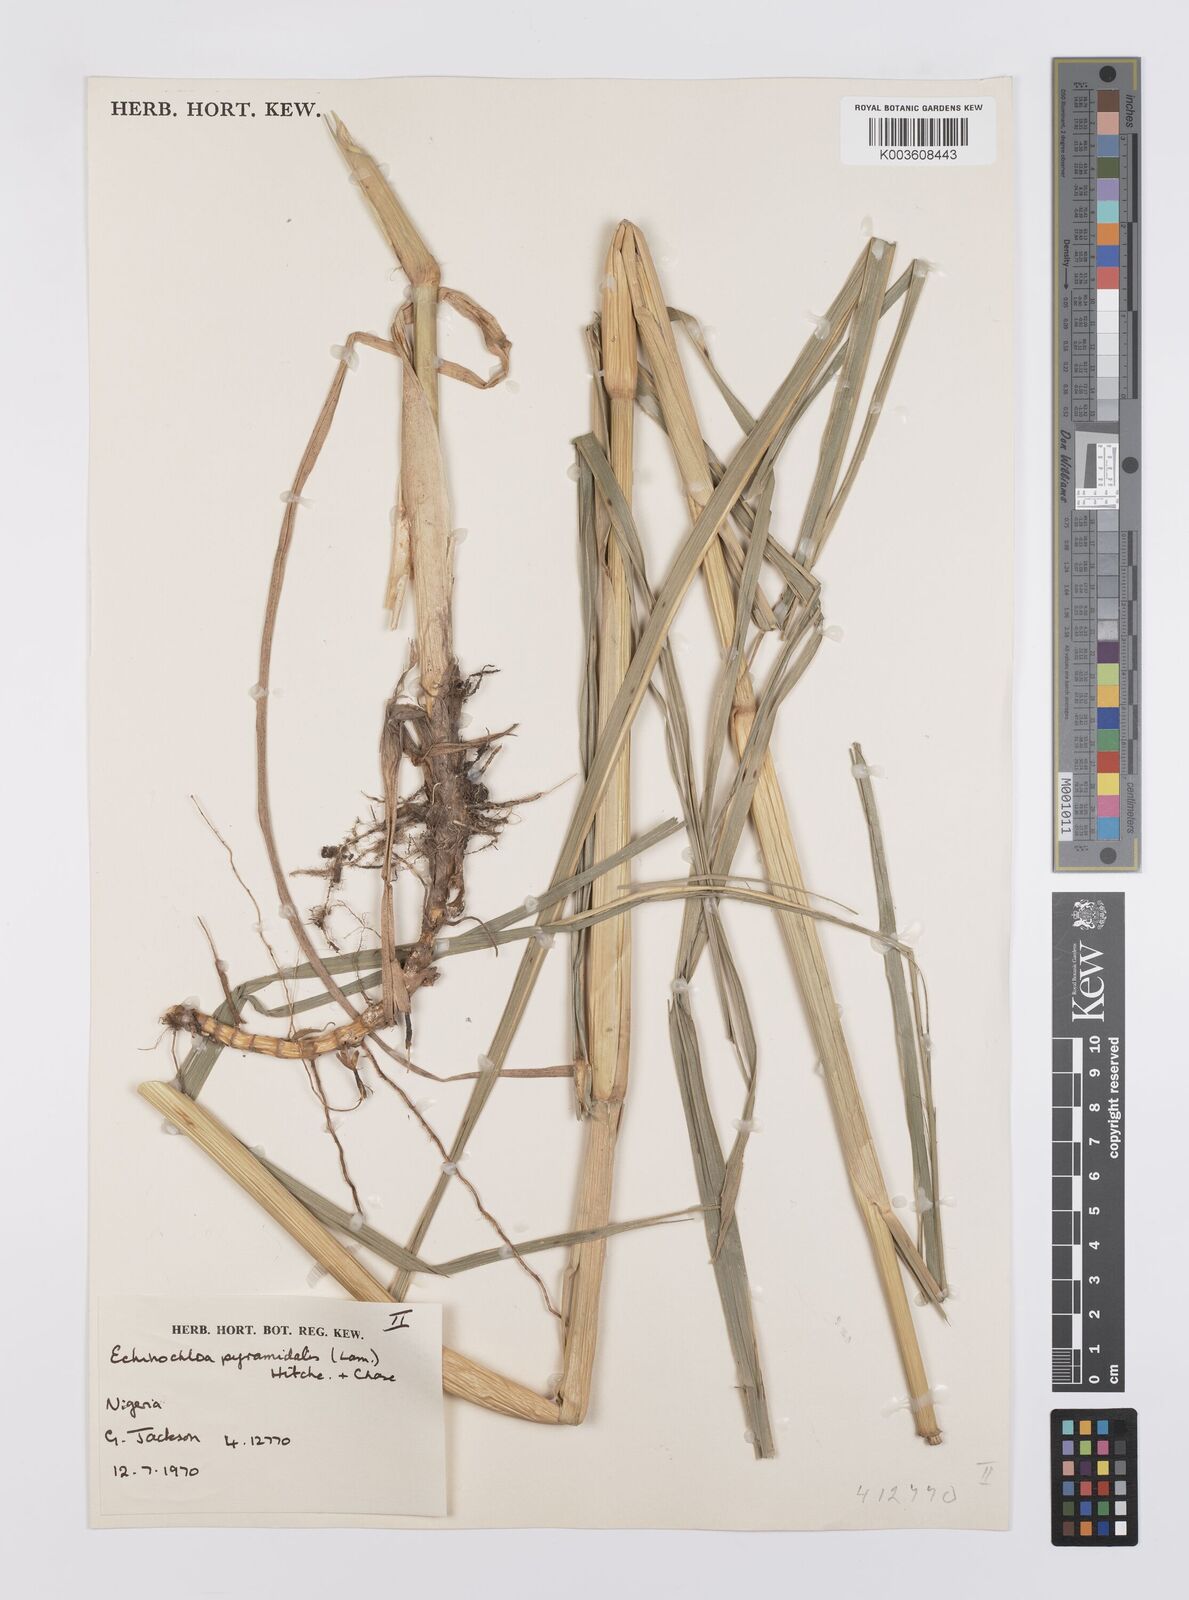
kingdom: Plantae
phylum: Tracheophyta
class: Liliopsida
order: Poales
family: Poaceae
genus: Echinochloa
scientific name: Echinochloa pyramidalis
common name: Antelope grass
